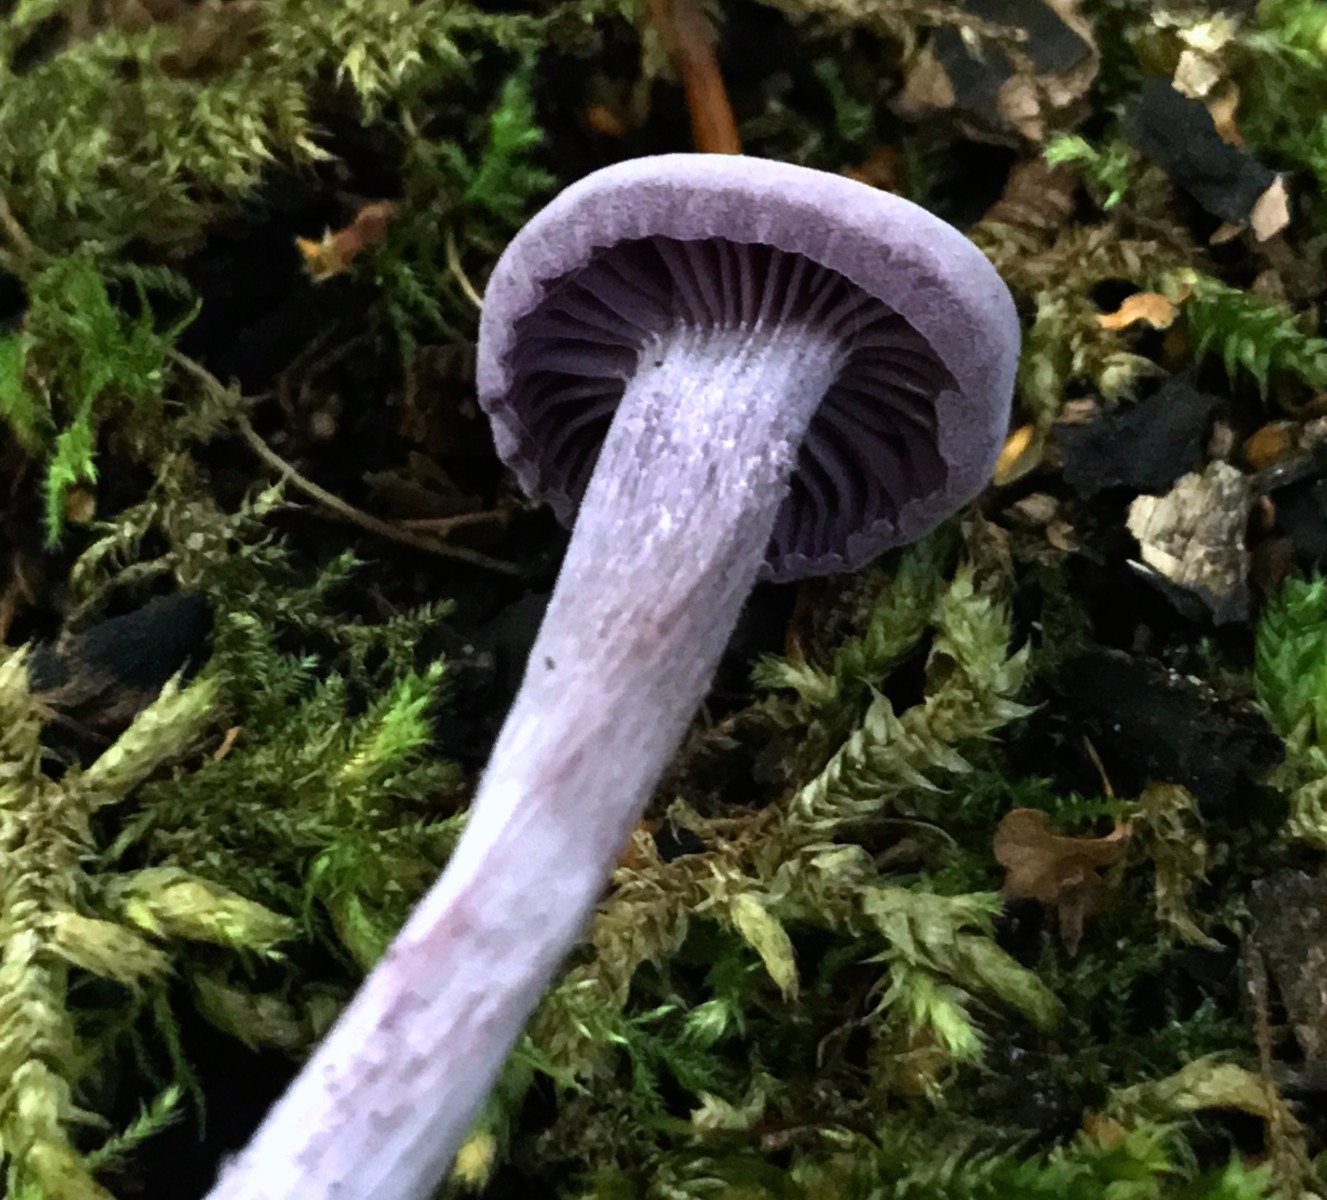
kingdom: Fungi
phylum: Basidiomycota
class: Agaricomycetes
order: Agaricales
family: Hydnangiaceae
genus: Laccaria
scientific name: Laccaria amethystina
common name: violet ametysthat
